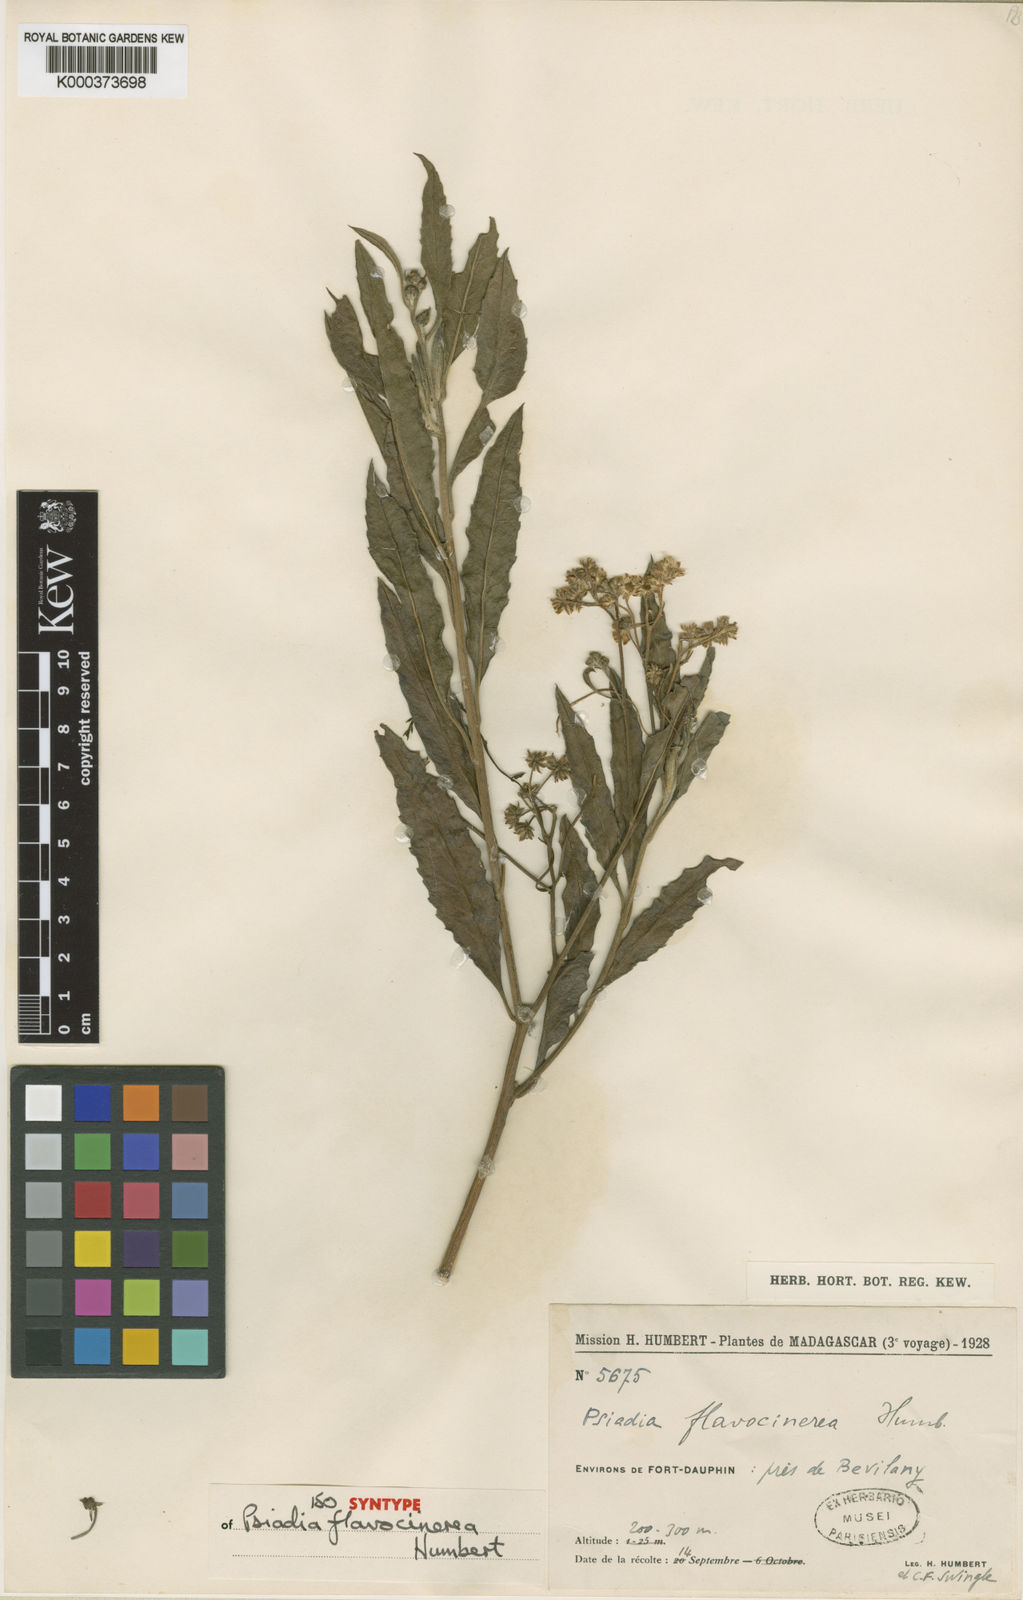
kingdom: Plantae
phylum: Tracheophyta
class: Magnoliopsida
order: Asterales
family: Asteraceae
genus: Psiadia
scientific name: Psiadia flavocinerea
